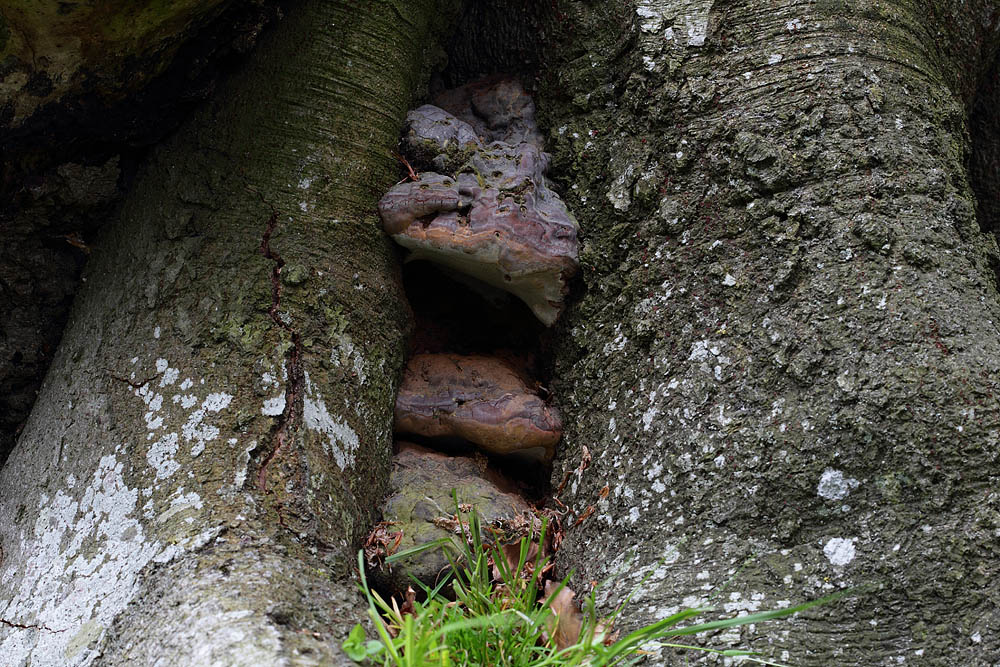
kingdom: Fungi
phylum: Basidiomycota
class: Agaricomycetes
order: Polyporales
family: Polyporaceae
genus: Ganoderma
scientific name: Ganoderma pfeifferi
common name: kobberrød lakporesvamp
